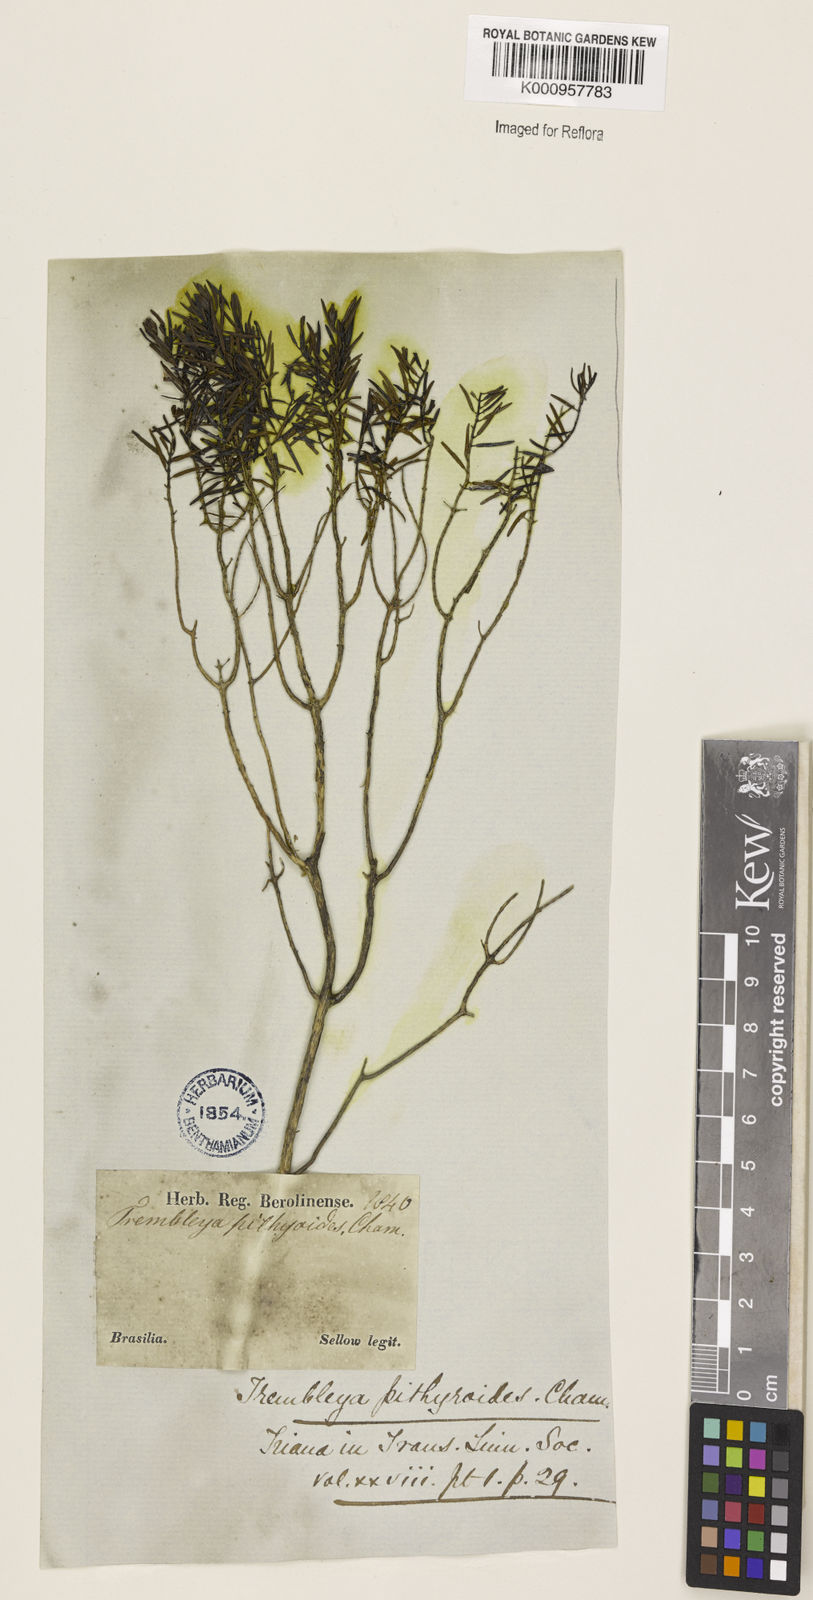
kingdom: Plantae
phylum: Tracheophyta
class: Magnoliopsida
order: Myrtales
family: Melastomataceae
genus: Microlicia
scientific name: Microlicia
